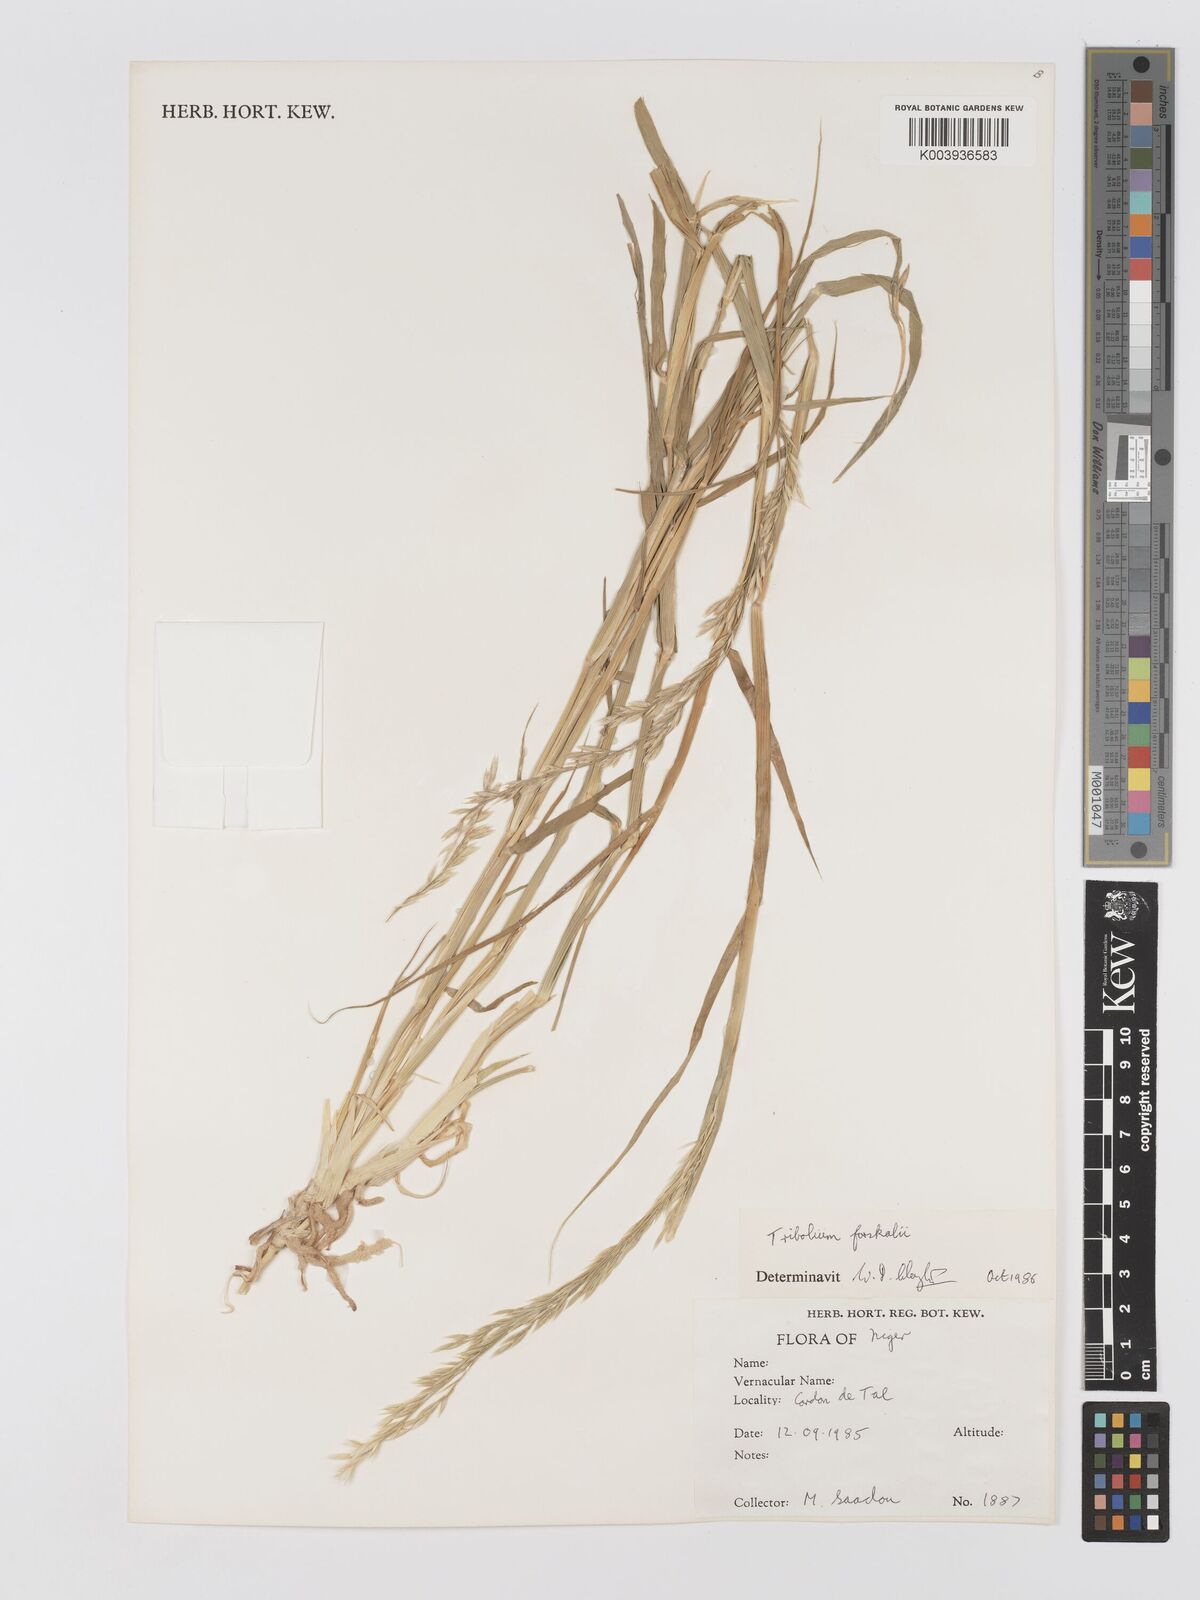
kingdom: Plantae
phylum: Tracheophyta
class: Liliopsida
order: Poales
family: Poaceae
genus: Centropodia
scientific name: Centropodia forskaolii
